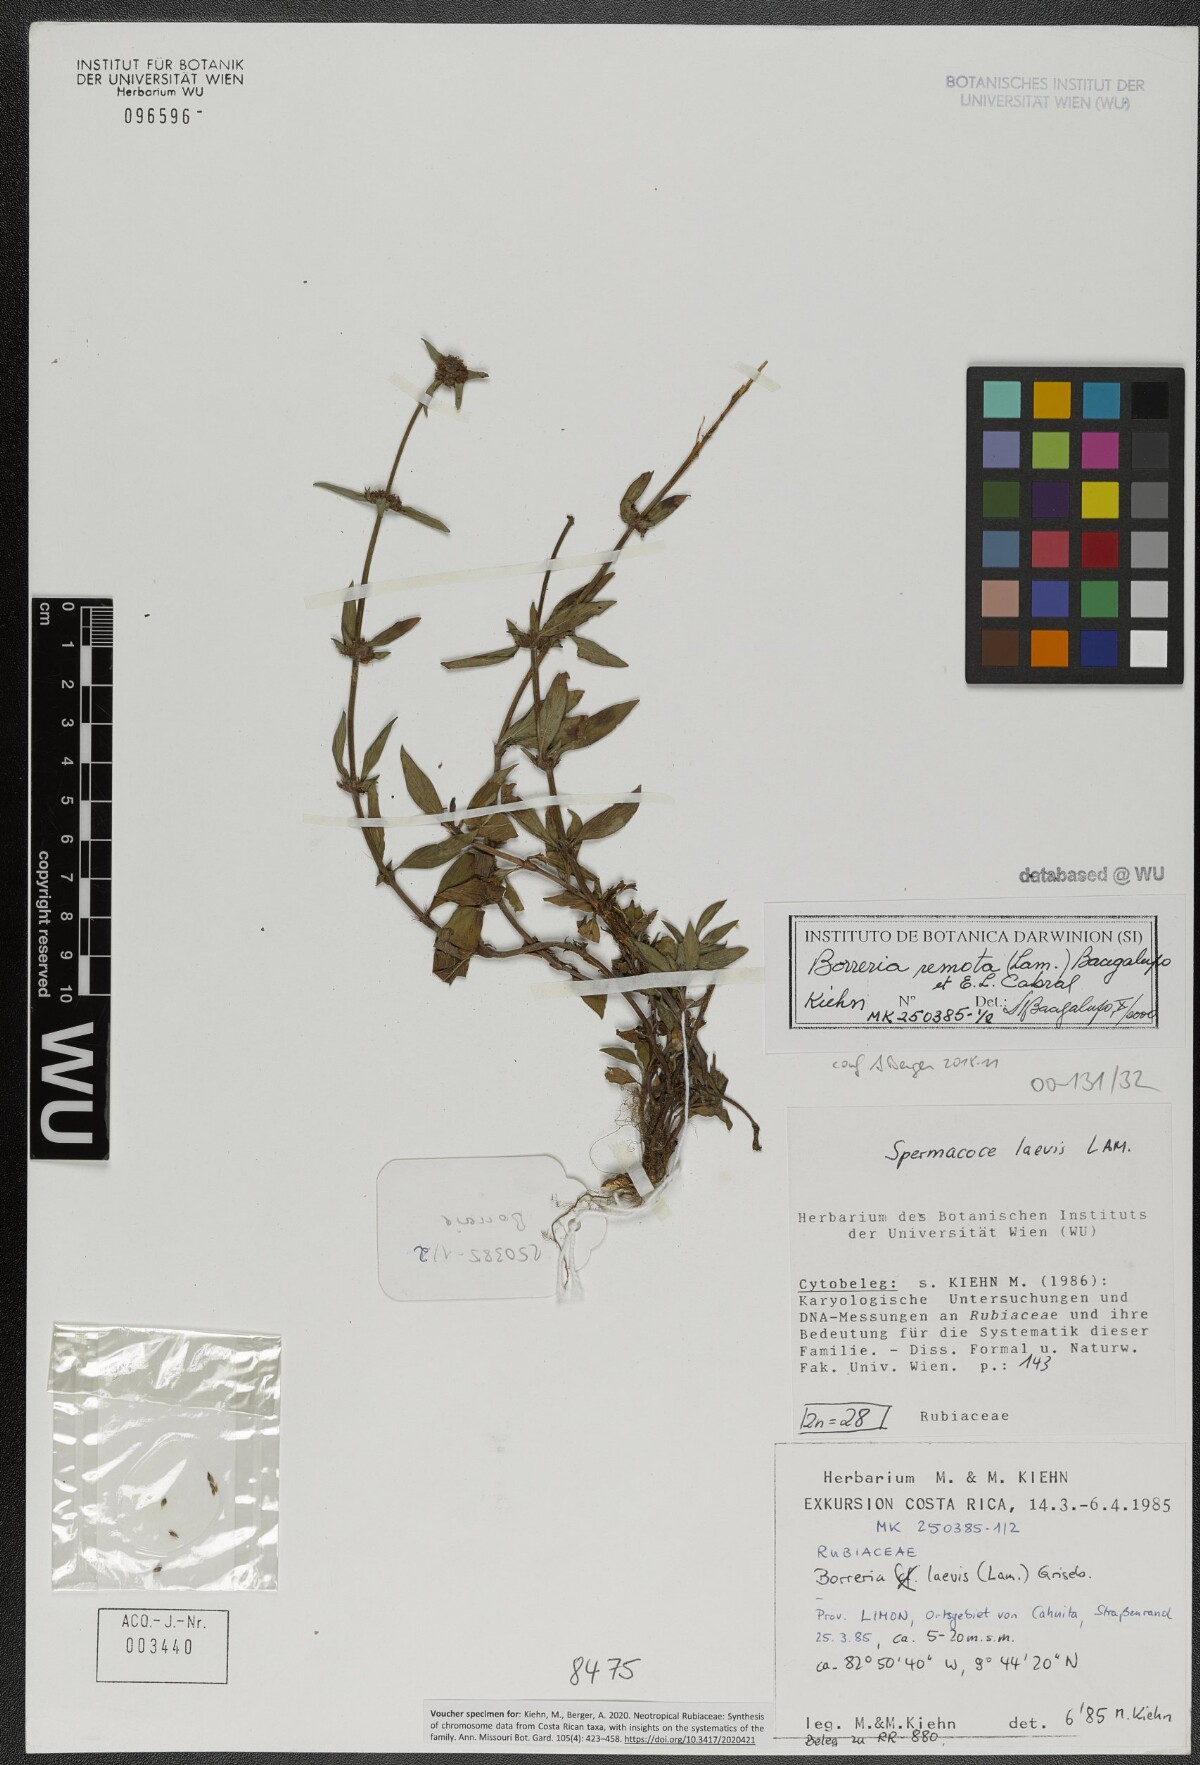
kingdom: Plantae
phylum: Tracheophyta
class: Magnoliopsida
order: Gentianales
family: Rubiaceae
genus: Spermacoce
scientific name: Spermacoce remota
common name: Woodland false buttonweed
